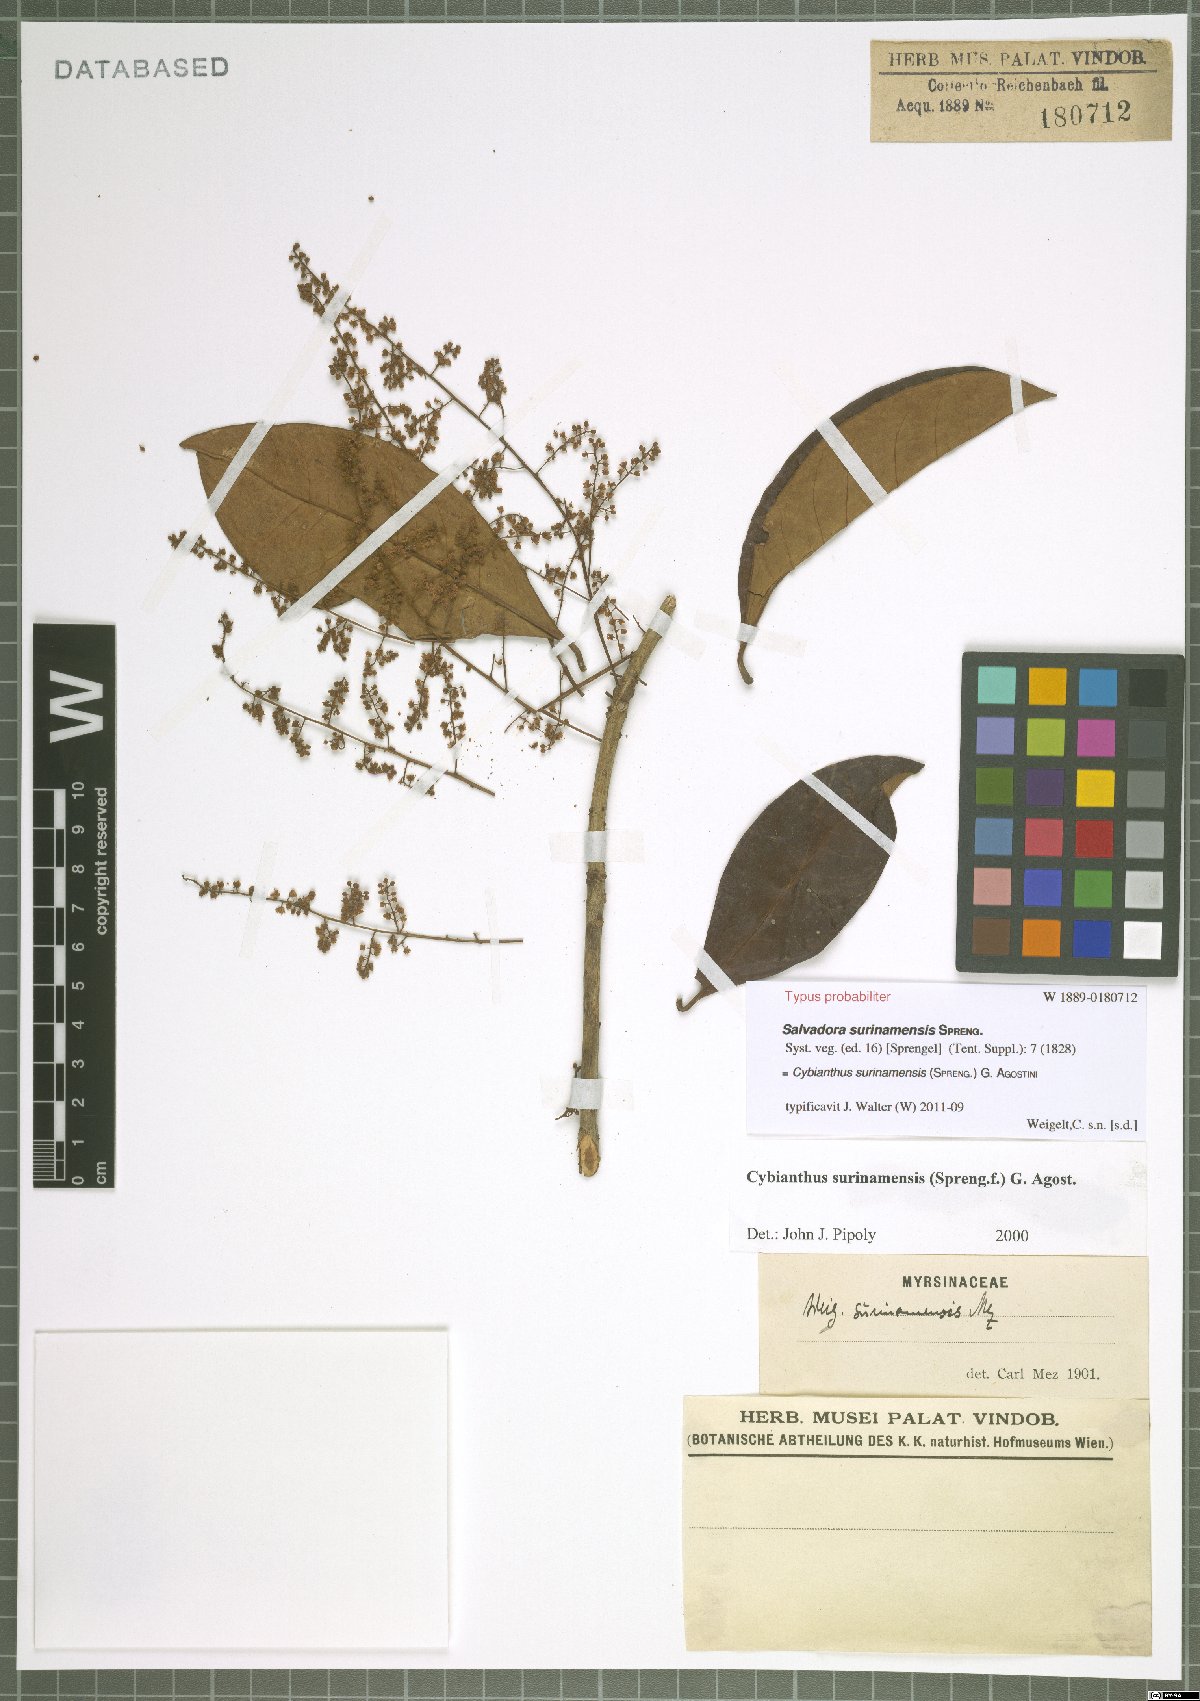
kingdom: Plantae
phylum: Tracheophyta
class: Magnoliopsida
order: Ericales
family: Primulaceae
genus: Cybianthus
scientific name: Cybianthus surinamensis
